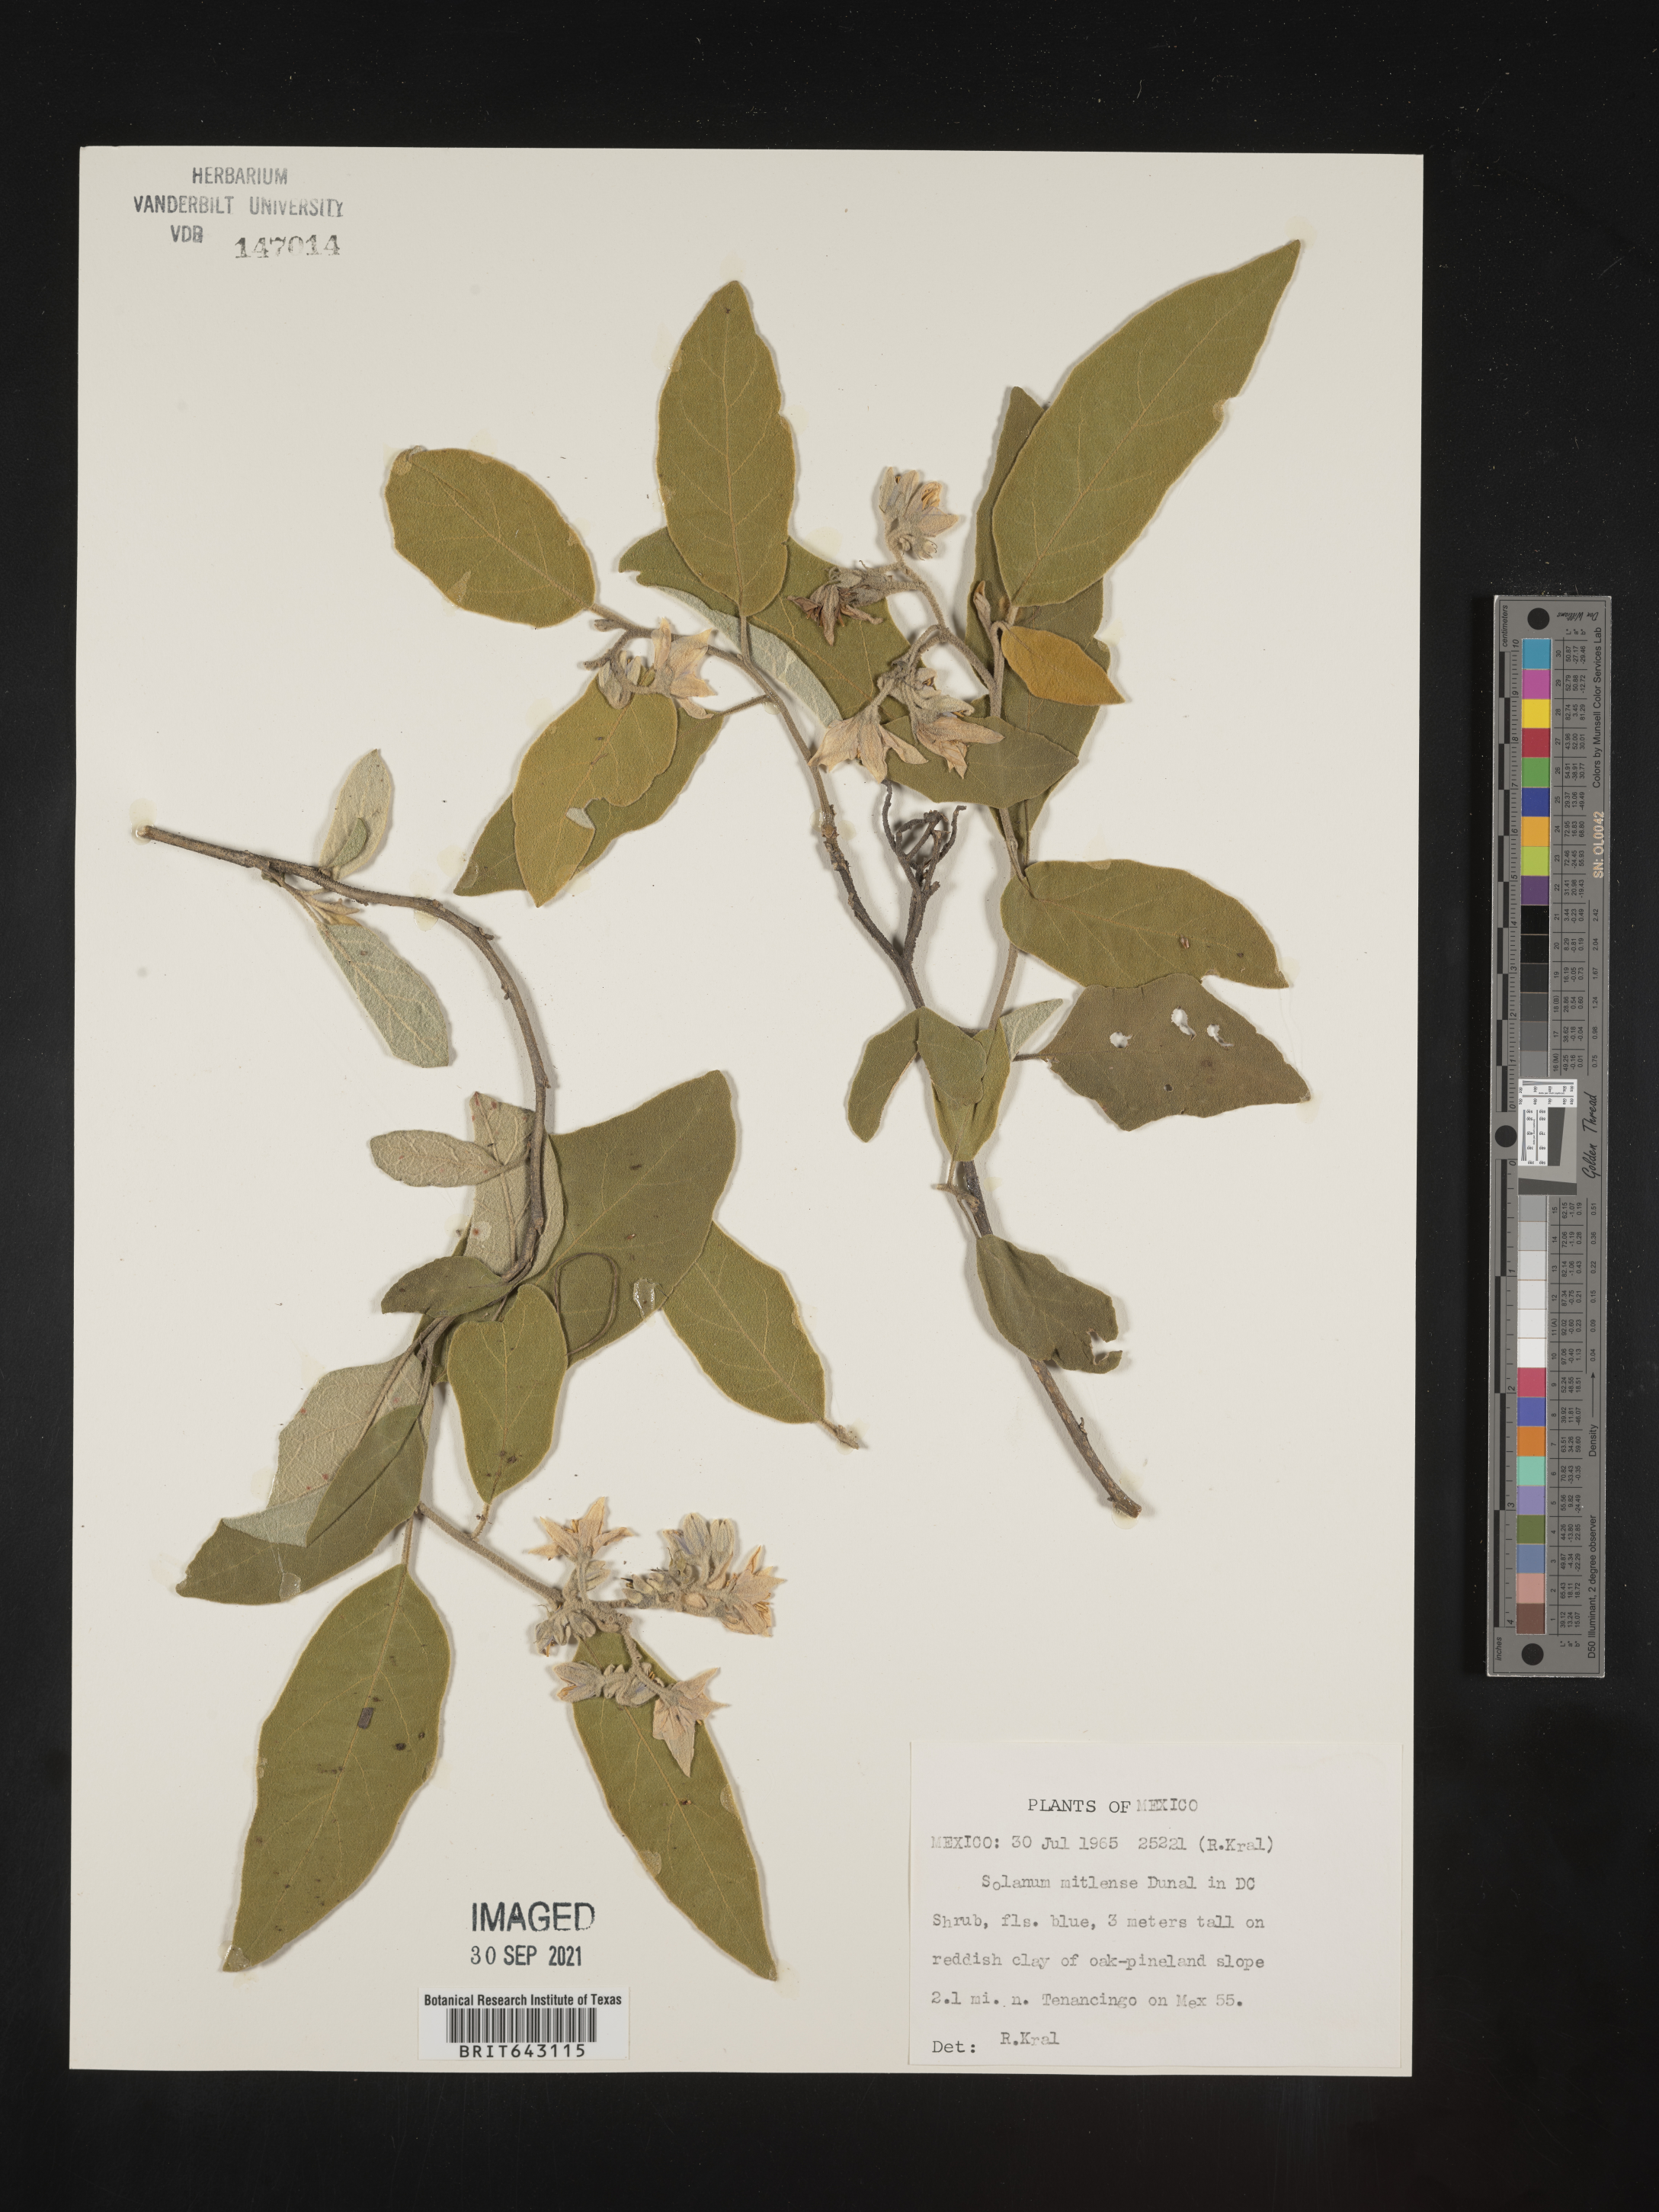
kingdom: Plantae
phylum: Tracheophyta
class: Magnoliopsida
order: Solanales
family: Solanaceae
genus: Solanum
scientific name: Solanum
